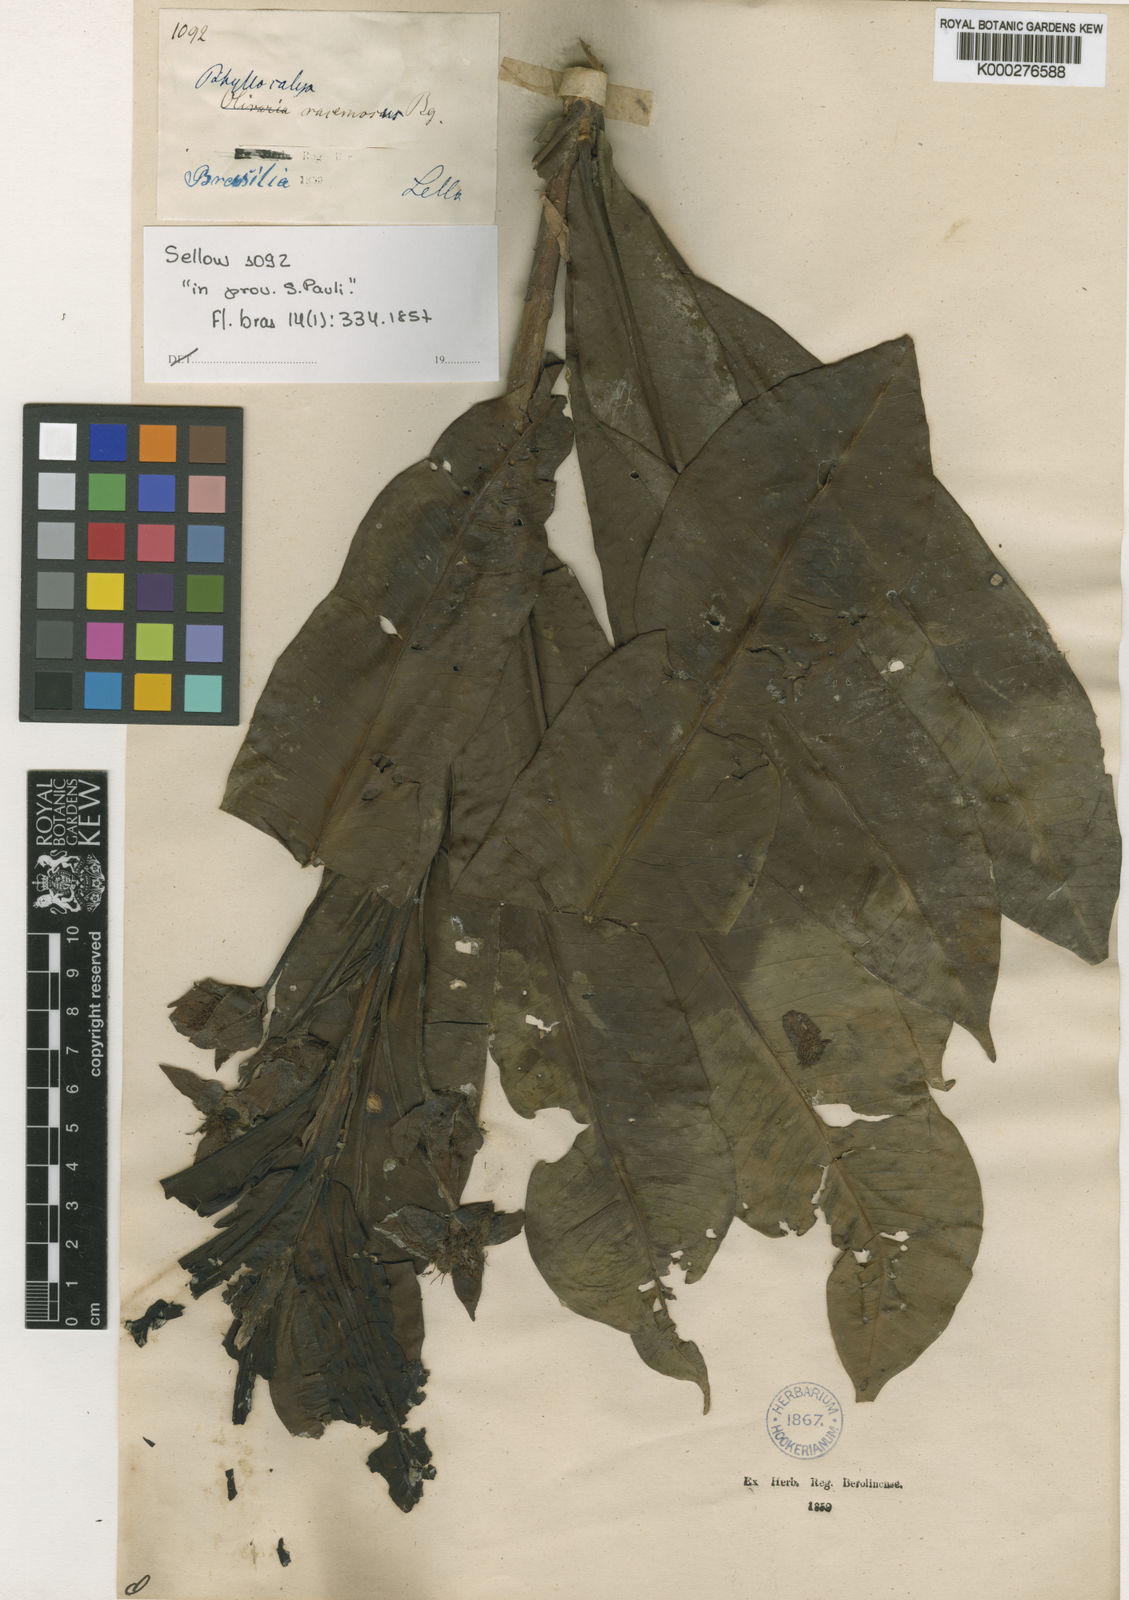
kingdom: Plantae
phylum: Tracheophyta
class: Magnoliopsida
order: Myrtales
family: Myrtaceae
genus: Eugenia
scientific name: Eugenia elongata
